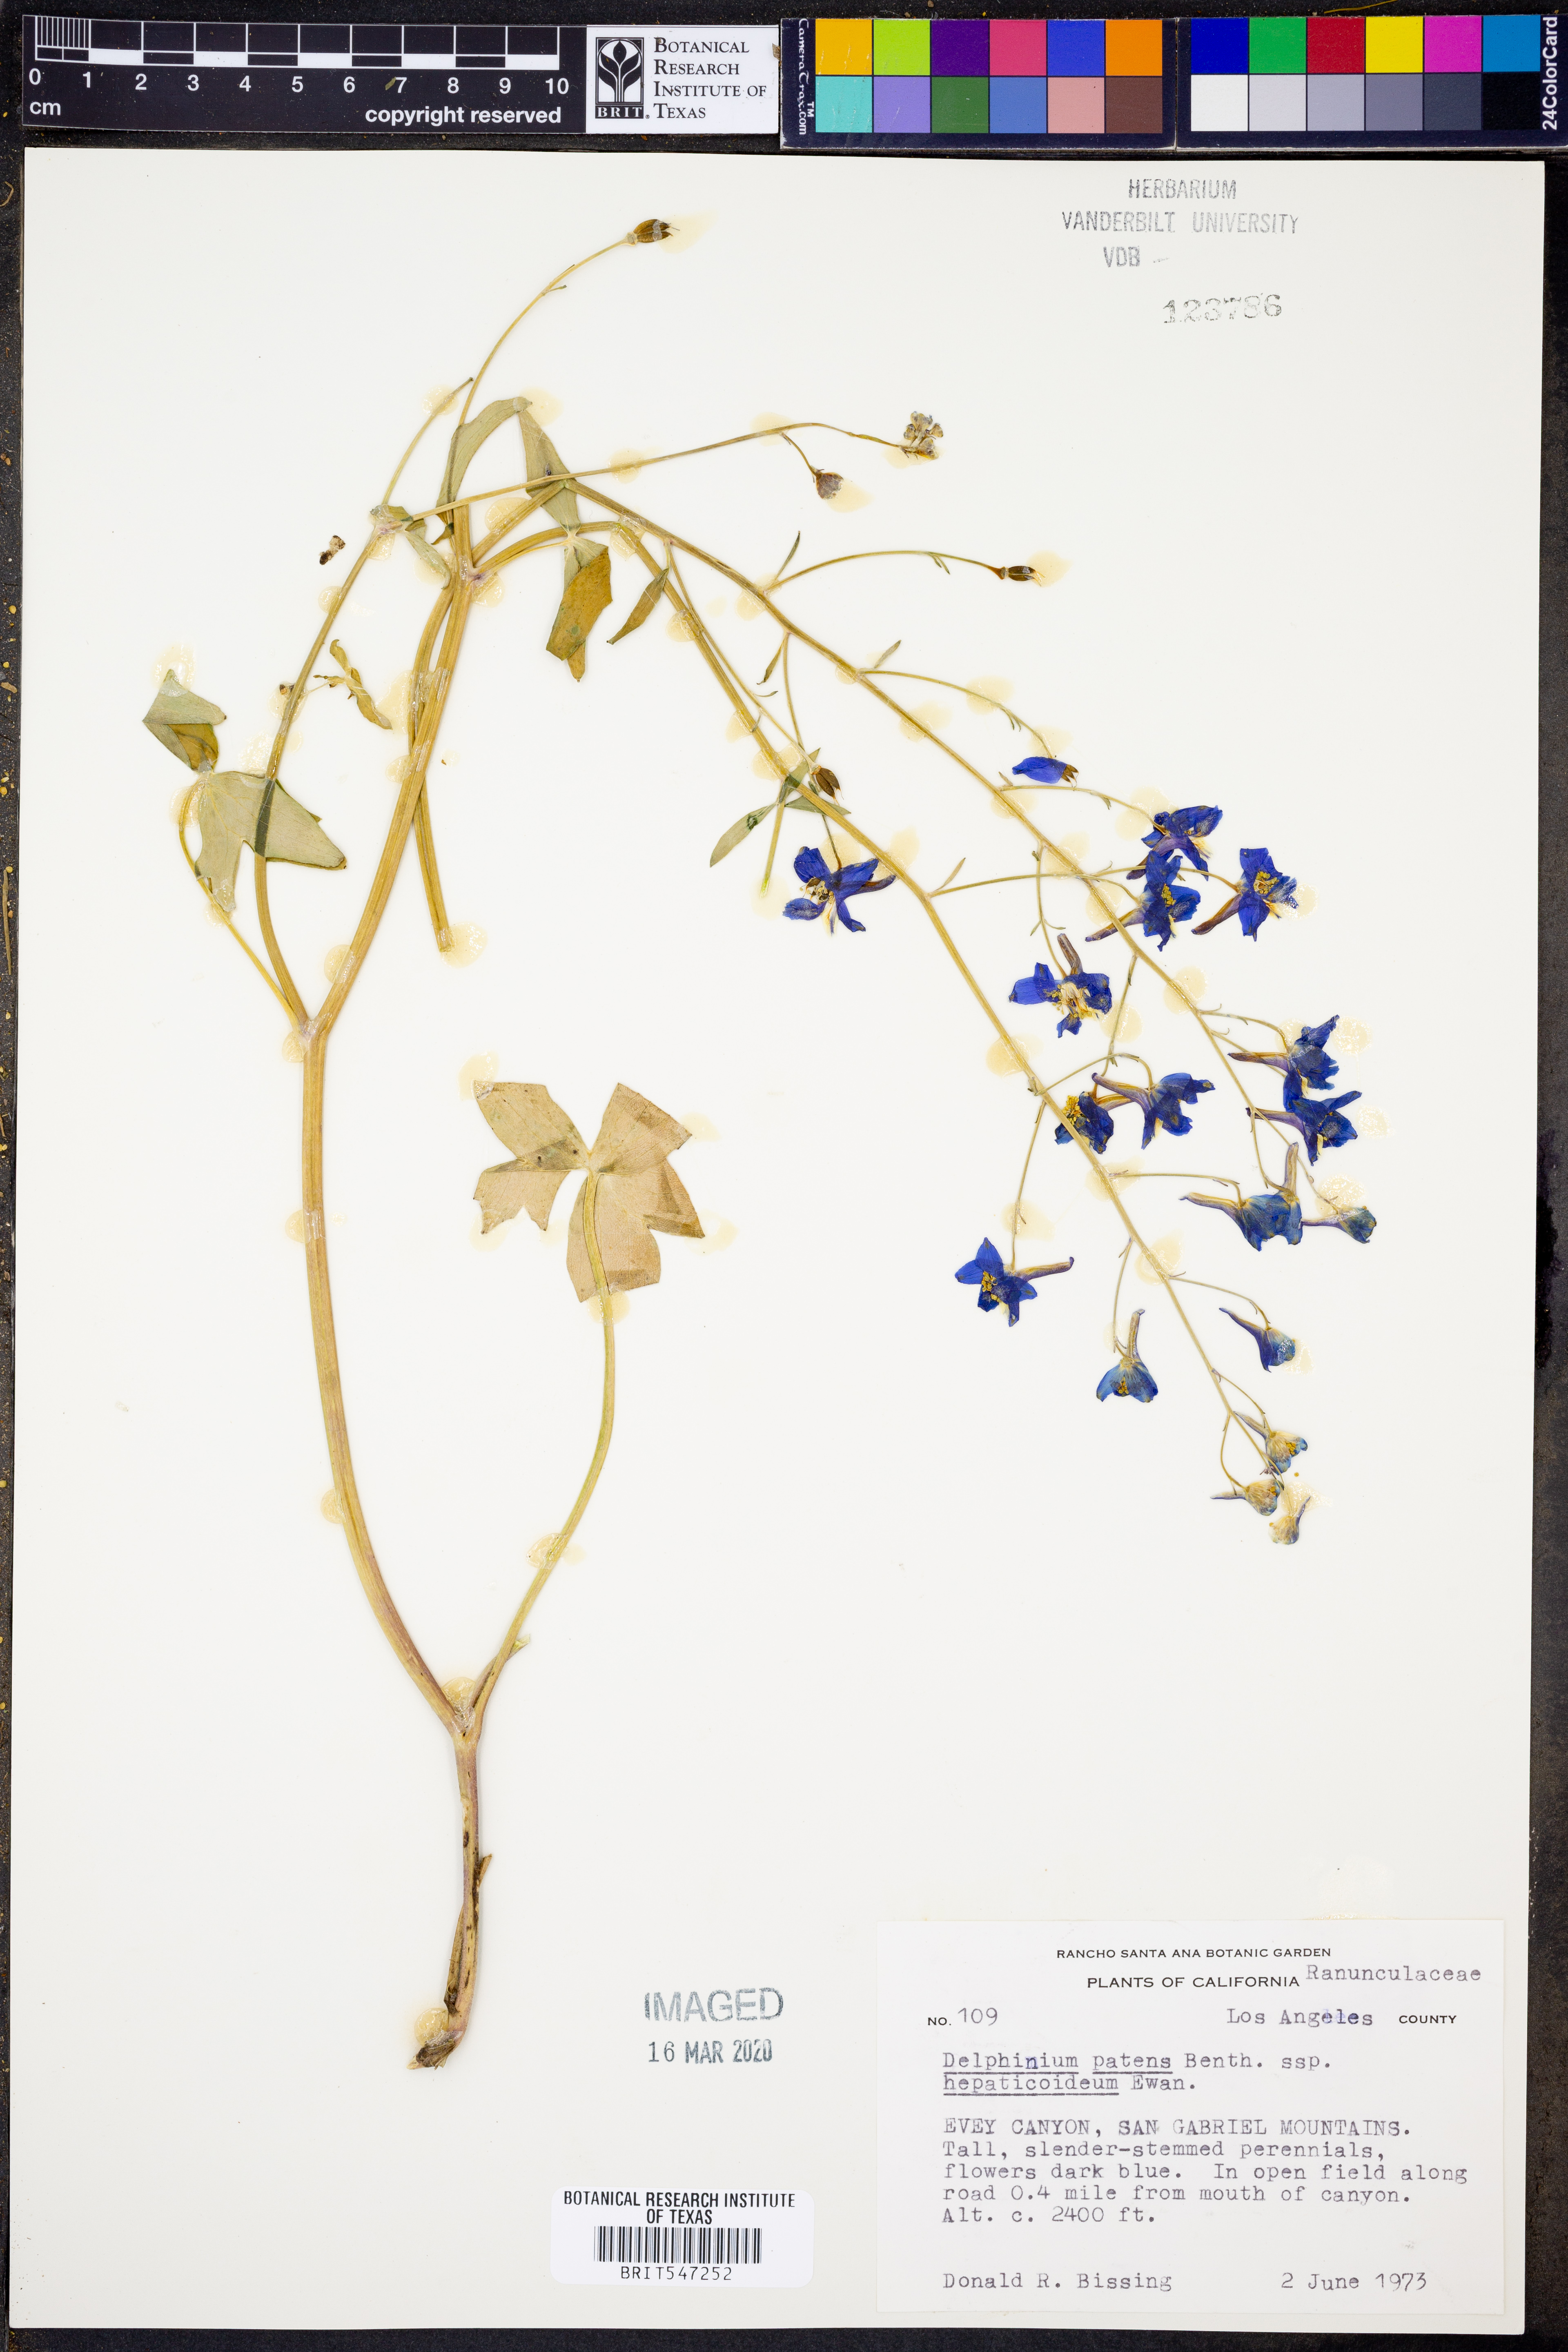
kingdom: Plantae
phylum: Tracheophyta
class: Magnoliopsida
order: Ranunculales
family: Ranunculaceae
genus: Delphinium
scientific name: Delphinium patens
